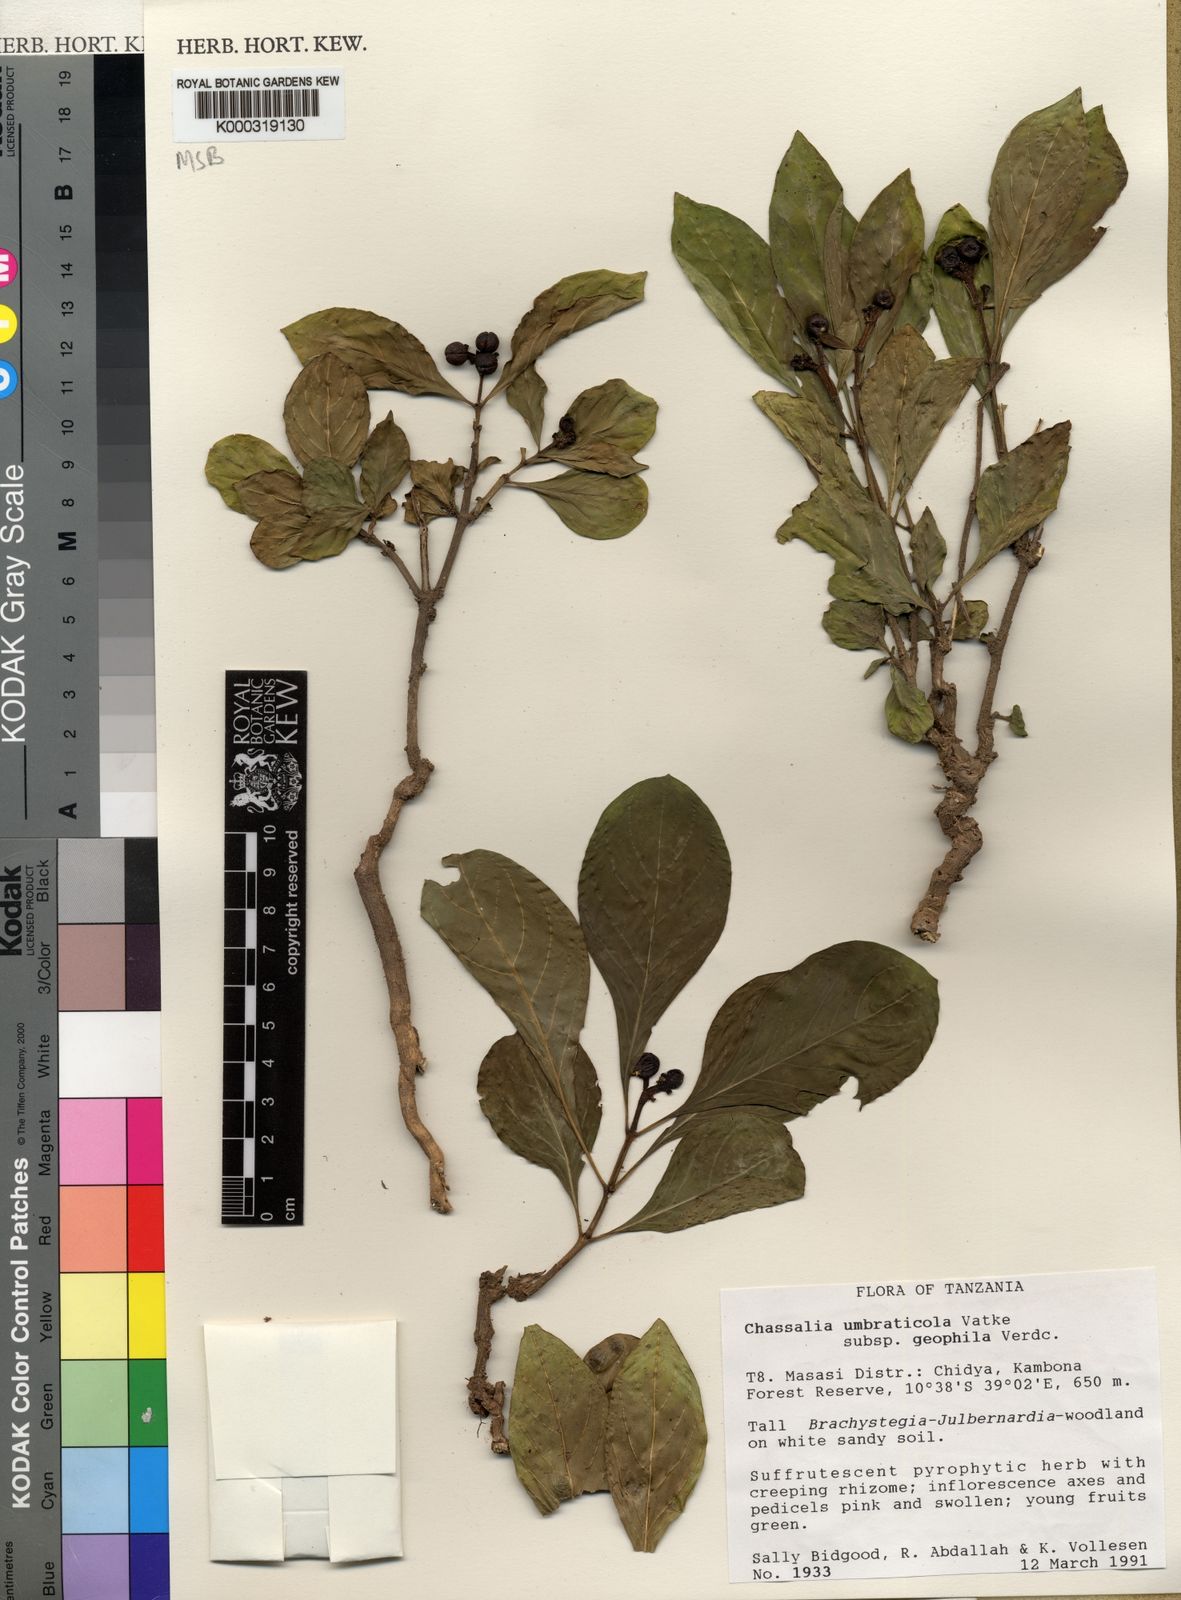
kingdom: Plantae
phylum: Tracheophyta
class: Magnoliopsida
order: Gentianales
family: Rubiaceae
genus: Chassalia
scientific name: Chassalia umbraticola
